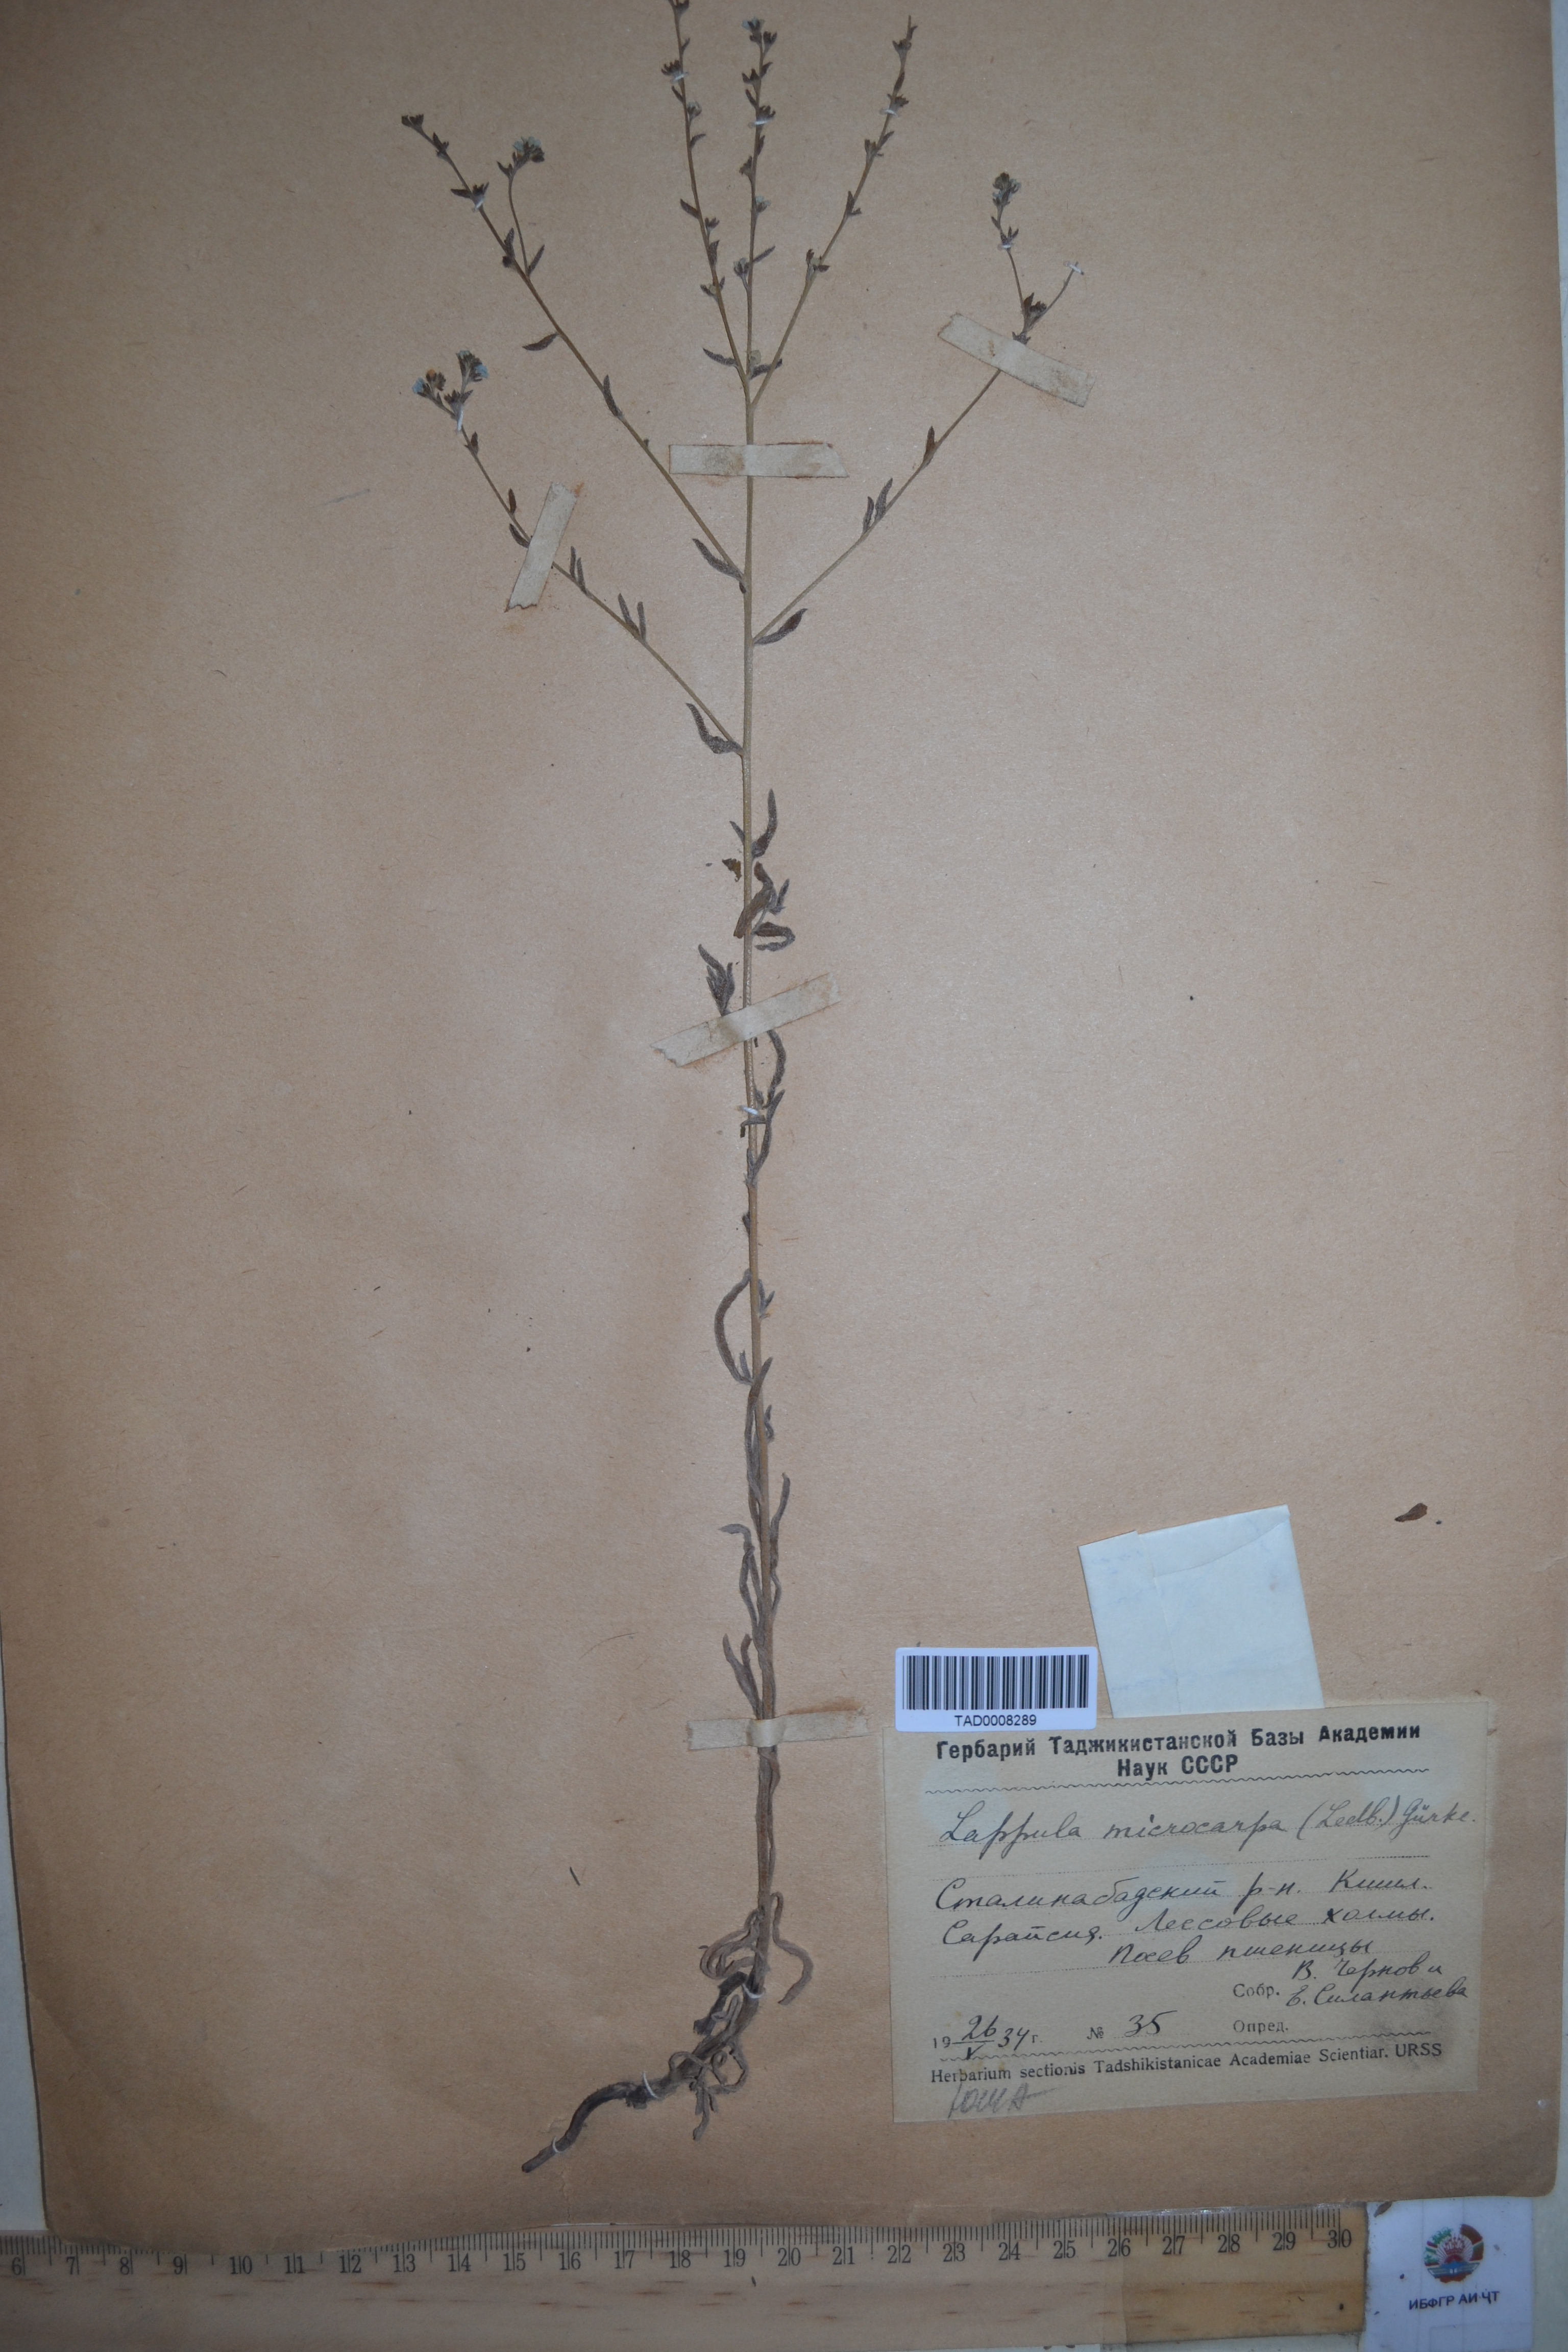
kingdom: Plantae
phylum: Tracheophyta
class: Magnoliopsida
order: Boraginales
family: Boraginaceae
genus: Lappula
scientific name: Lappula microcarpa
